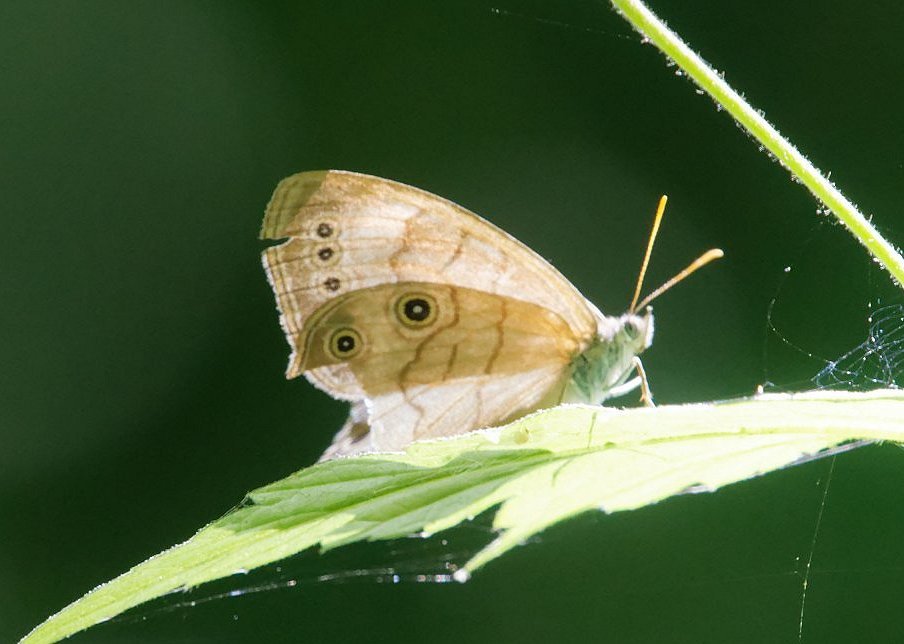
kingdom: Animalia
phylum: Arthropoda
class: Insecta
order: Lepidoptera
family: Nymphalidae
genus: Lethe
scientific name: Lethe eurydice
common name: Appalachian Eyed Brown
